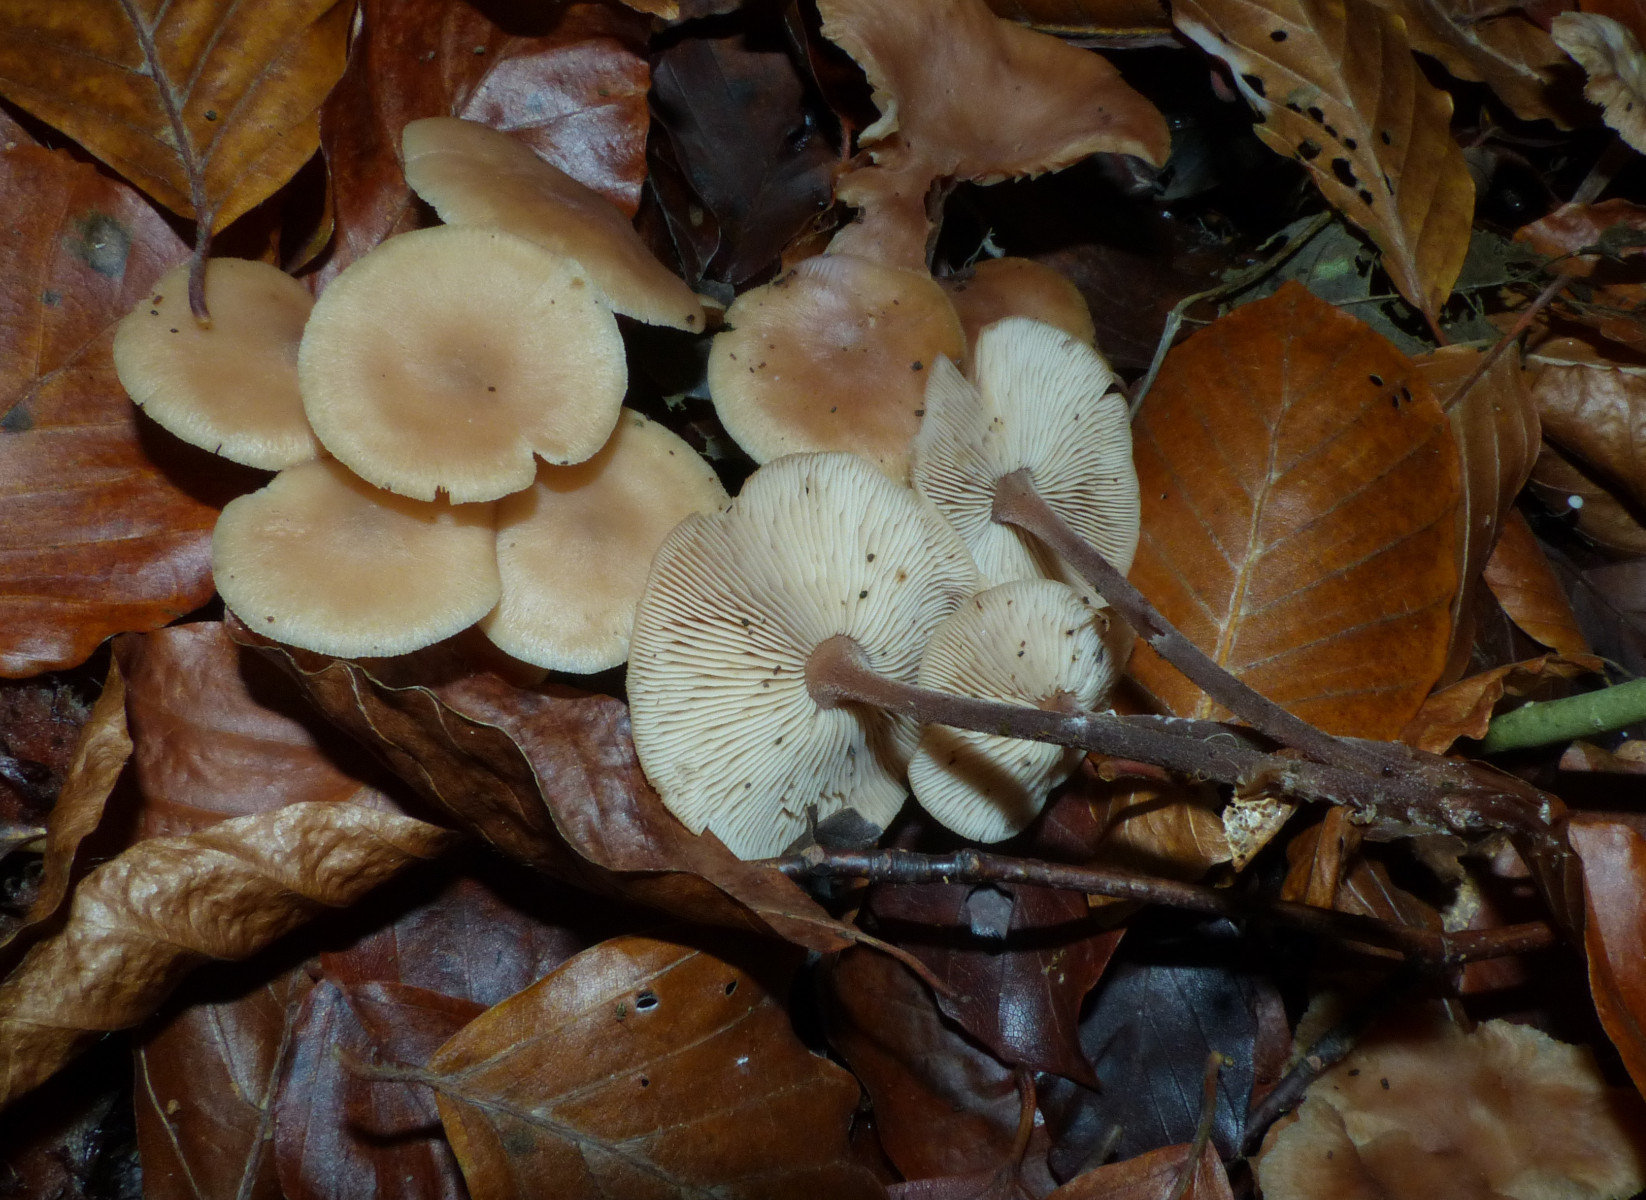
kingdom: Fungi
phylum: Basidiomycota
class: Agaricomycetes
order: Agaricales
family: Omphalotaceae
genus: Collybiopsis
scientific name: Collybiopsis confluens
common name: knippe-fladhat
